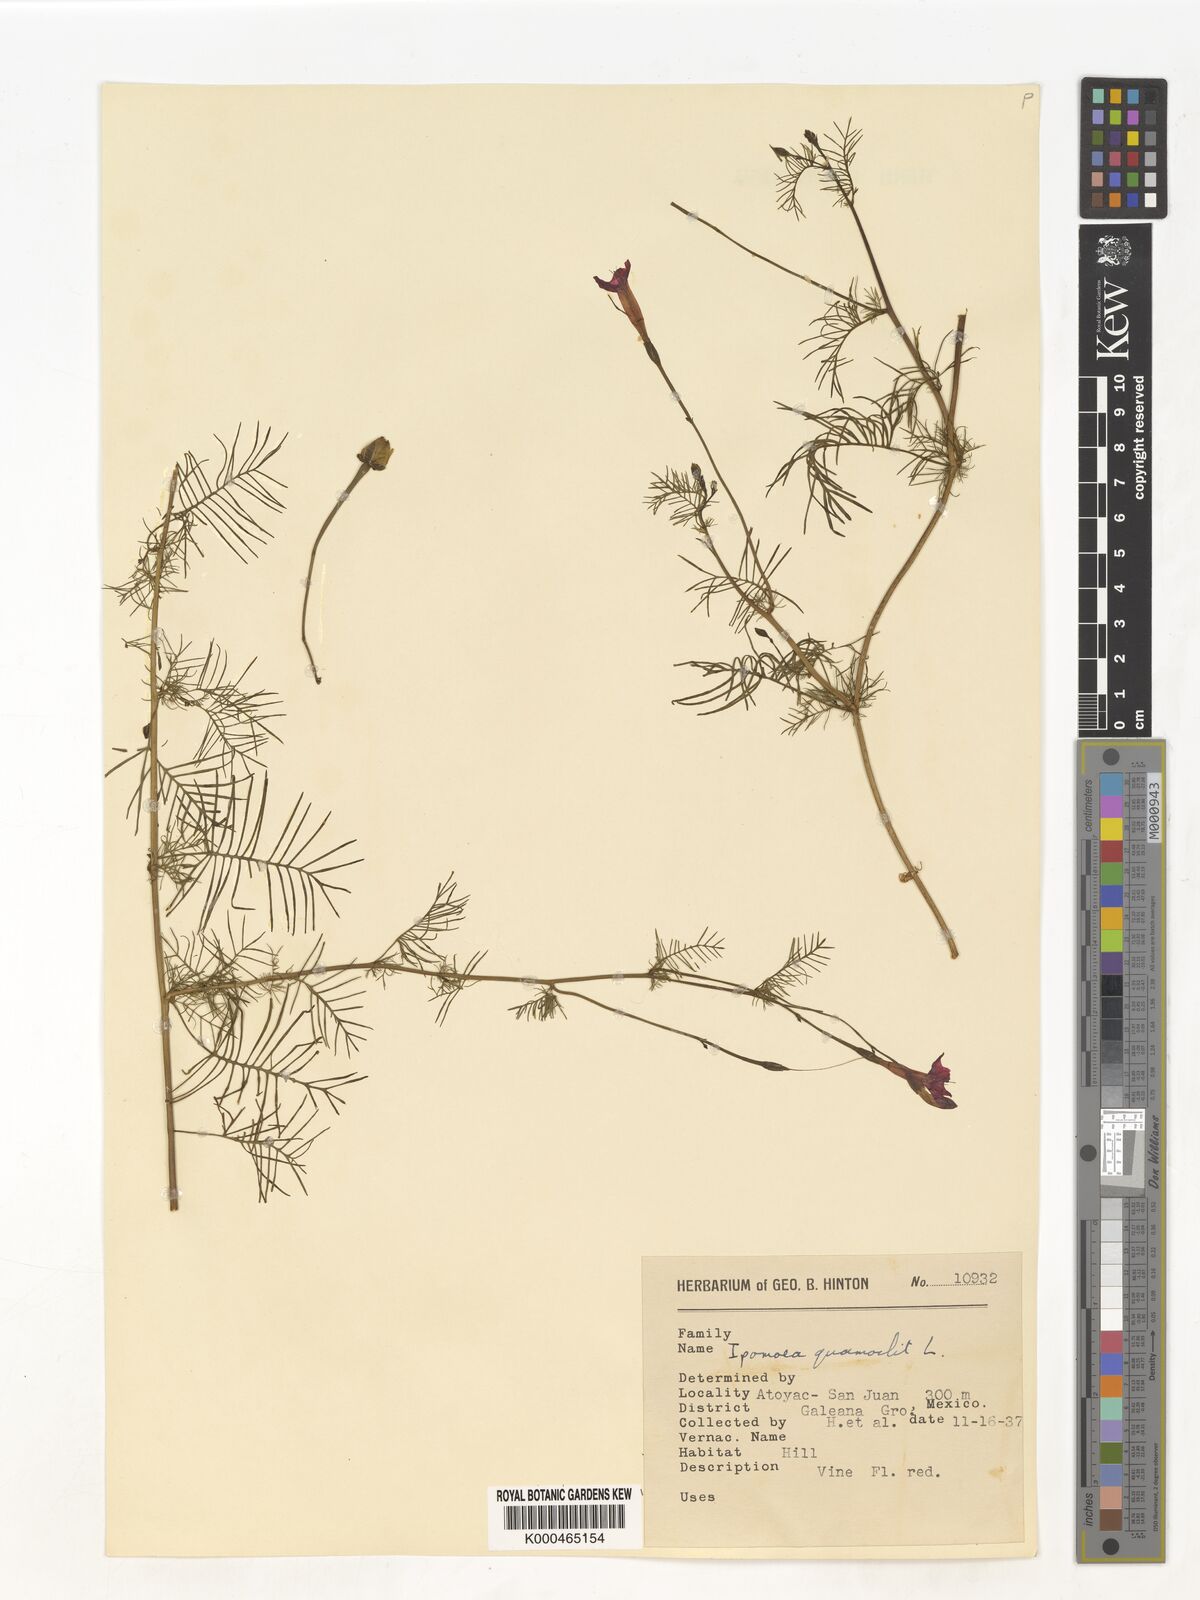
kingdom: Plantae
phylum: Tracheophyta
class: Magnoliopsida
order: Solanales
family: Convolvulaceae
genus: Ipomoea
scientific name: Ipomoea quamoclit
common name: Cypress vine
